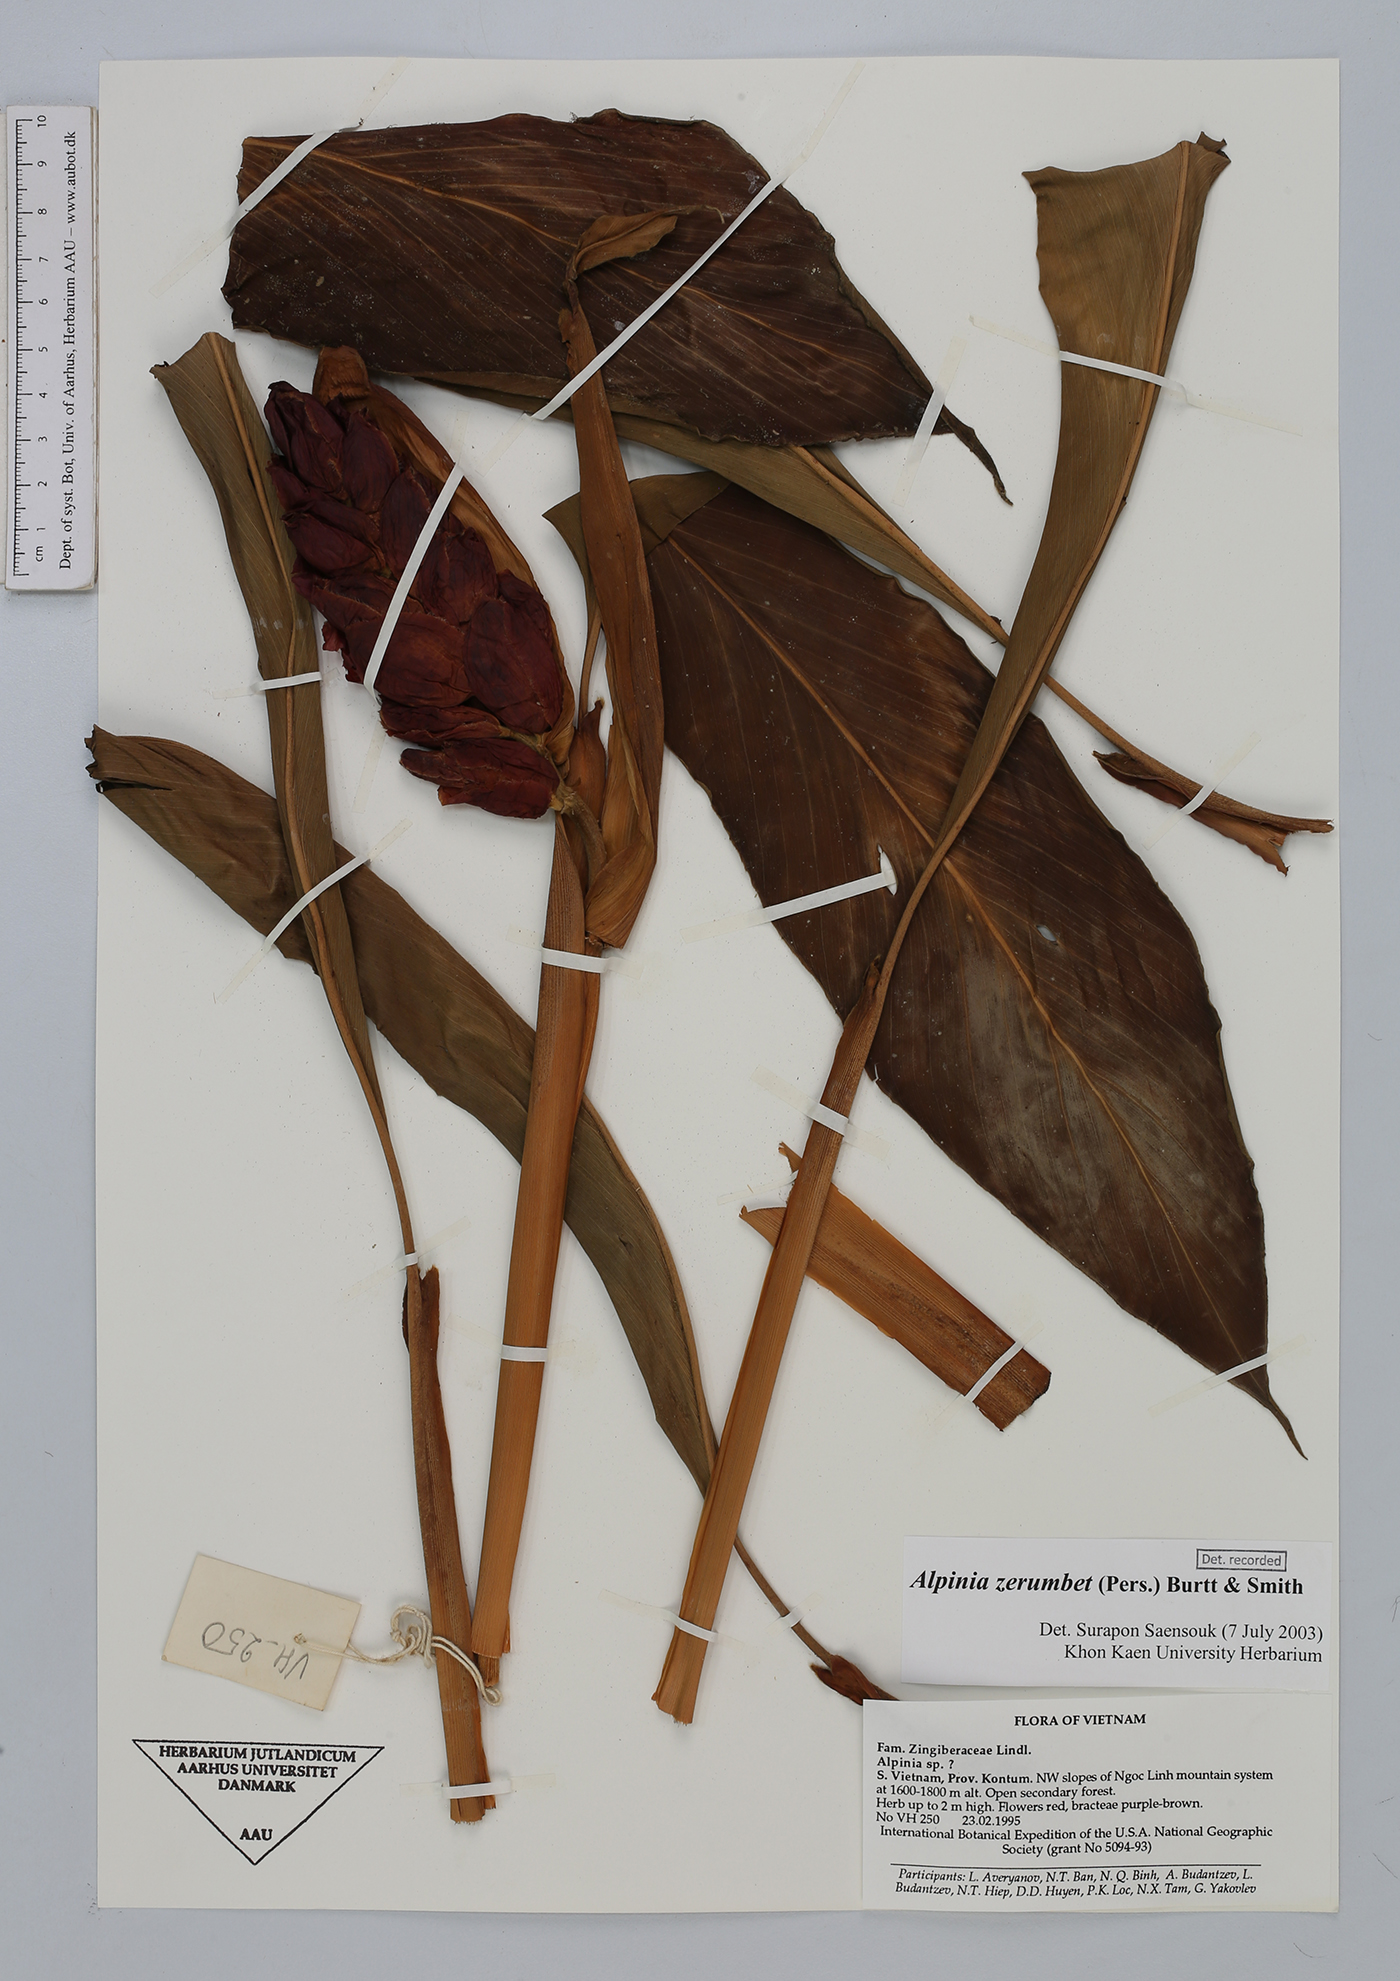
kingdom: Plantae
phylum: Tracheophyta
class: Liliopsida
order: Zingiberales
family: Zingiberaceae
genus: Alpinia
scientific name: Alpinia zerumbet
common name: Shellplant
